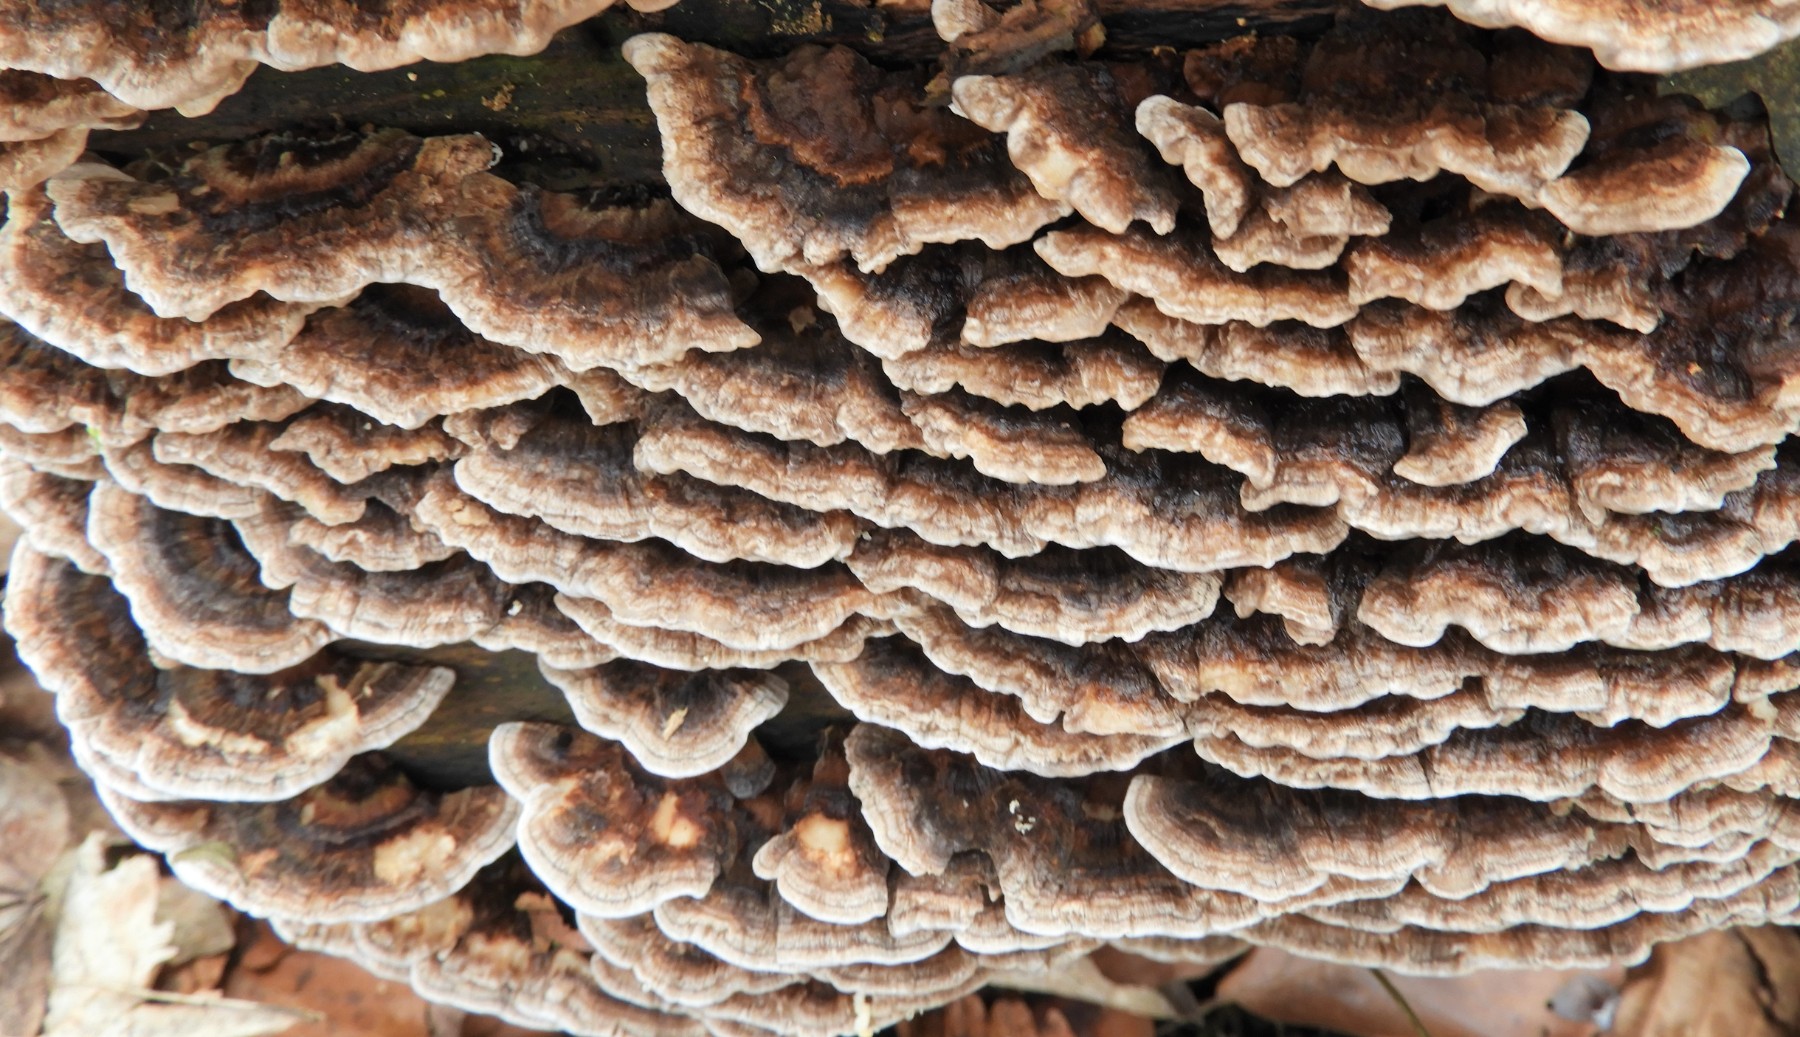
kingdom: Fungi
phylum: Basidiomycota
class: Agaricomycetes
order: Polyporales
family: Polyporaceae
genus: Trametes
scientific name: Trametes versicolor
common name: broget læderporesvamp
